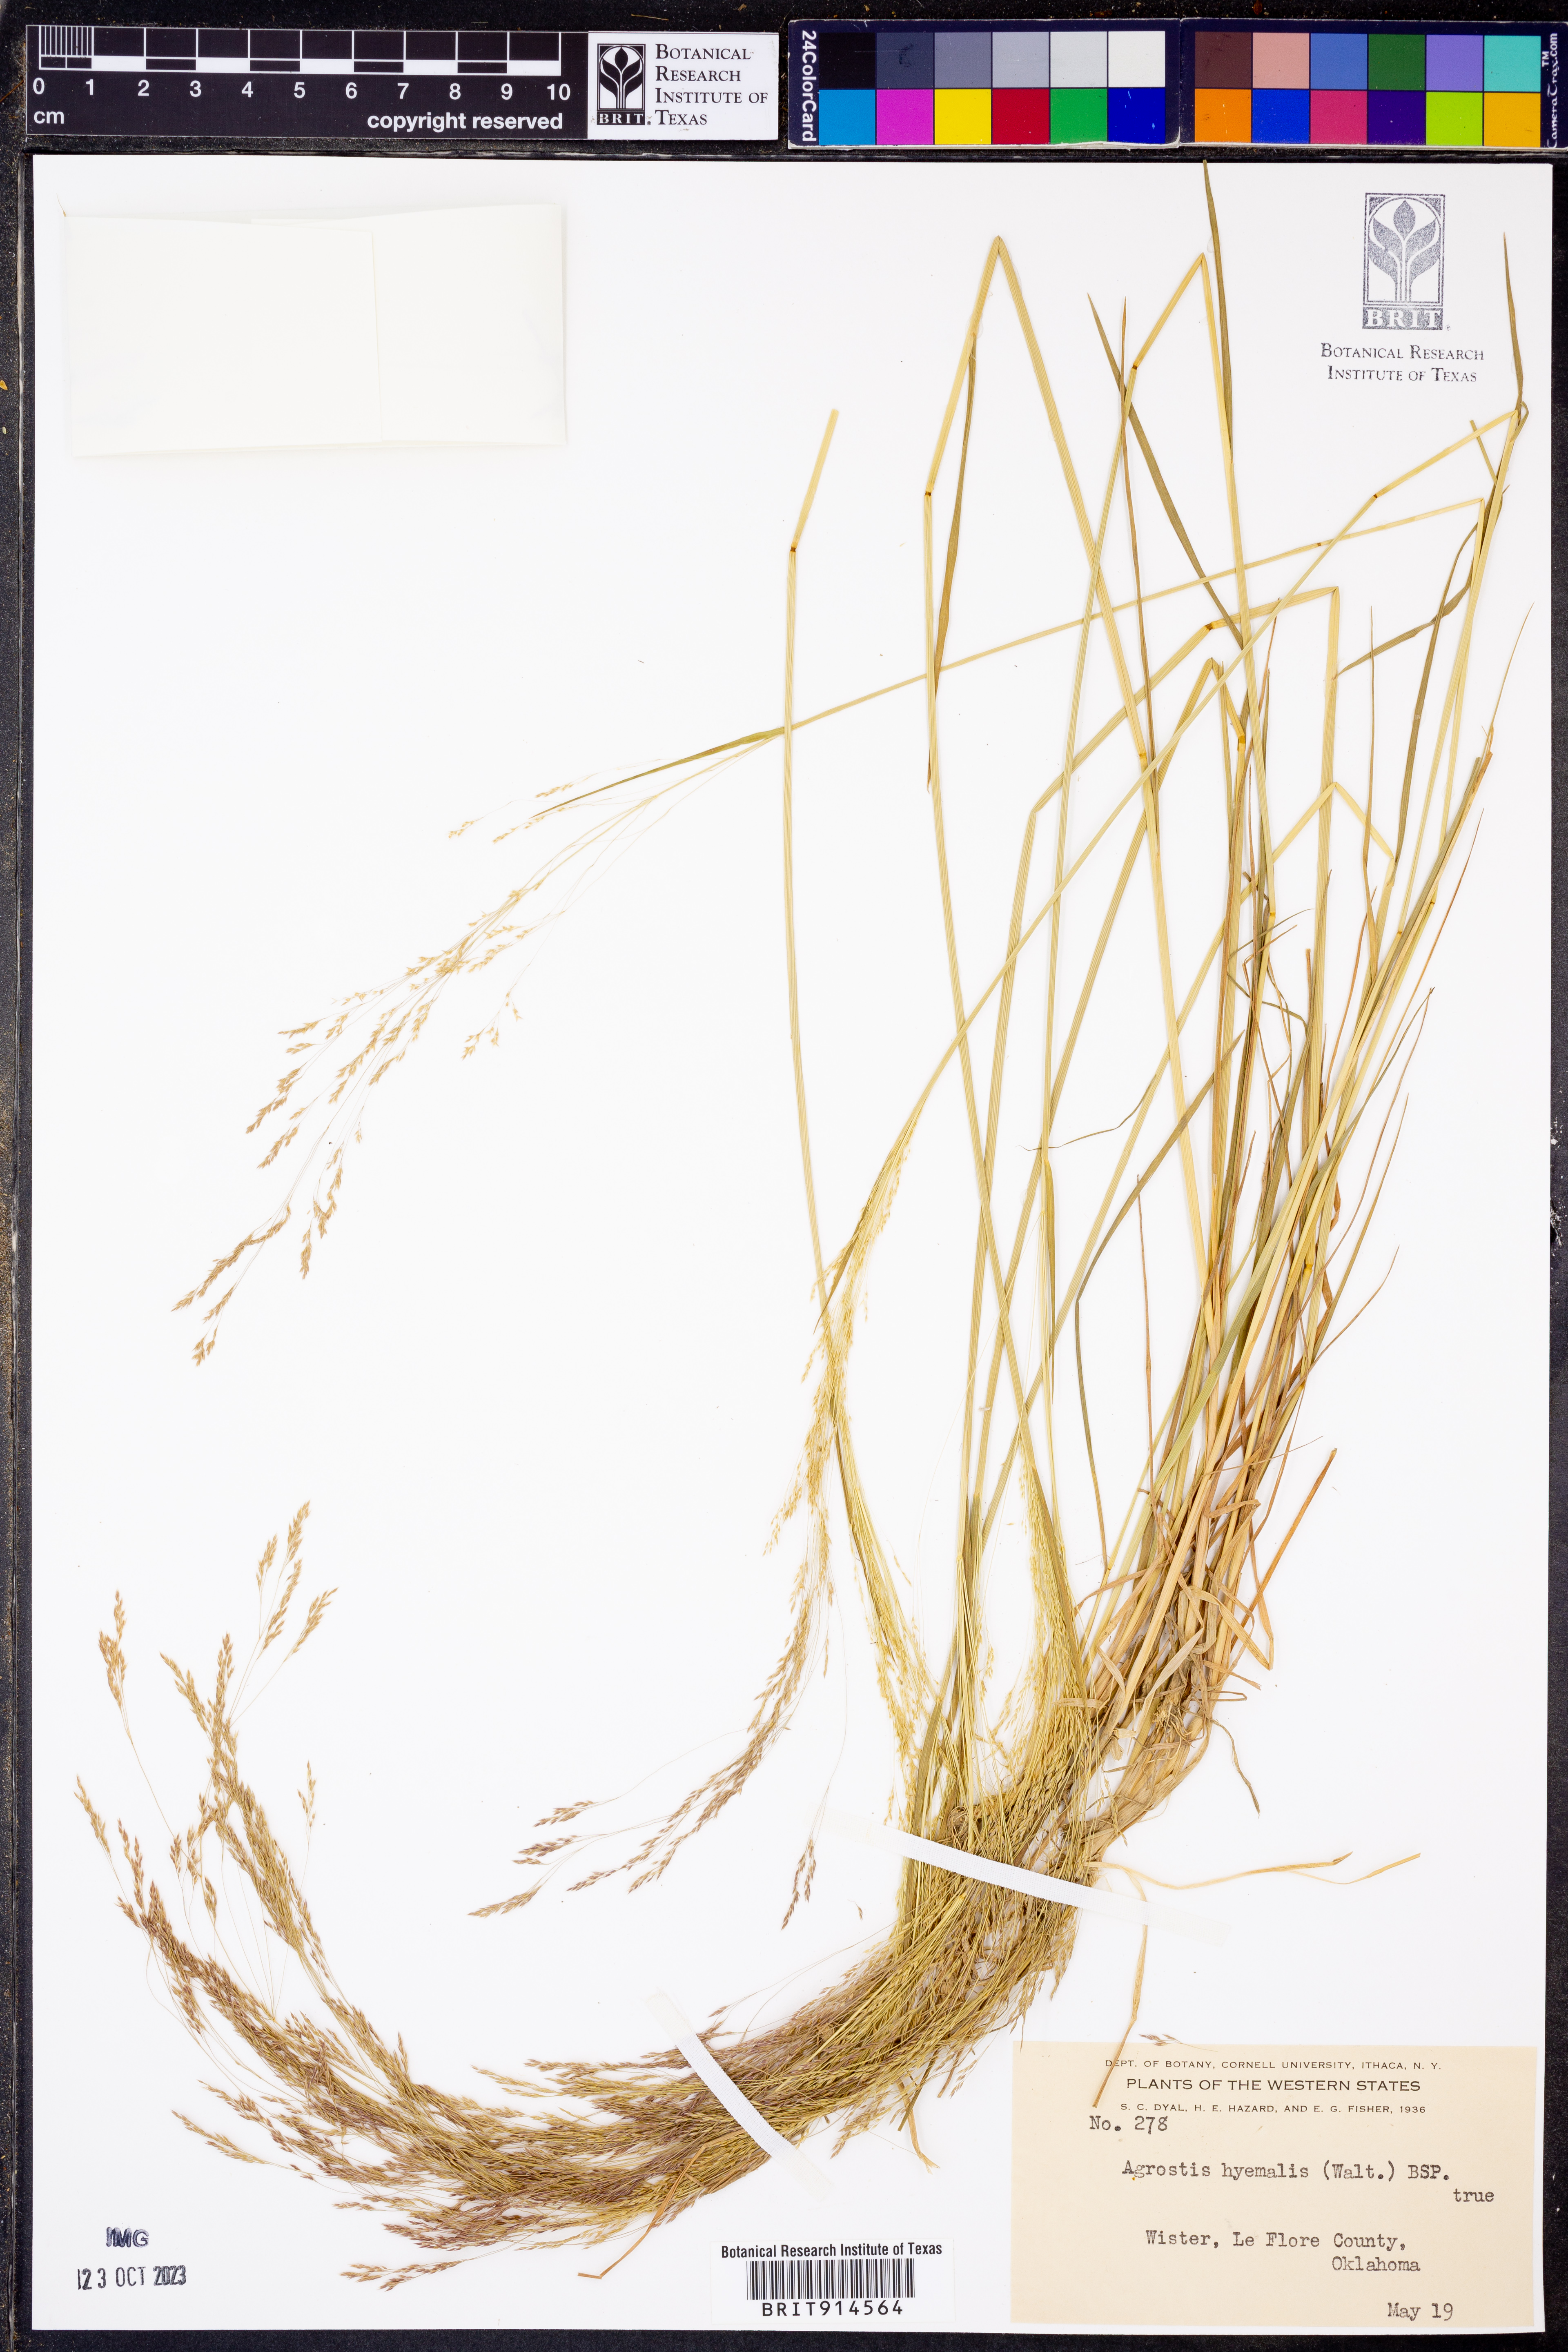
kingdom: Plantae
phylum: Tracheophyta
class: Liliopsida
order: Poales
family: Poaceae
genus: Agrostis
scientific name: Agrostis hyemalis
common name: Small bent
